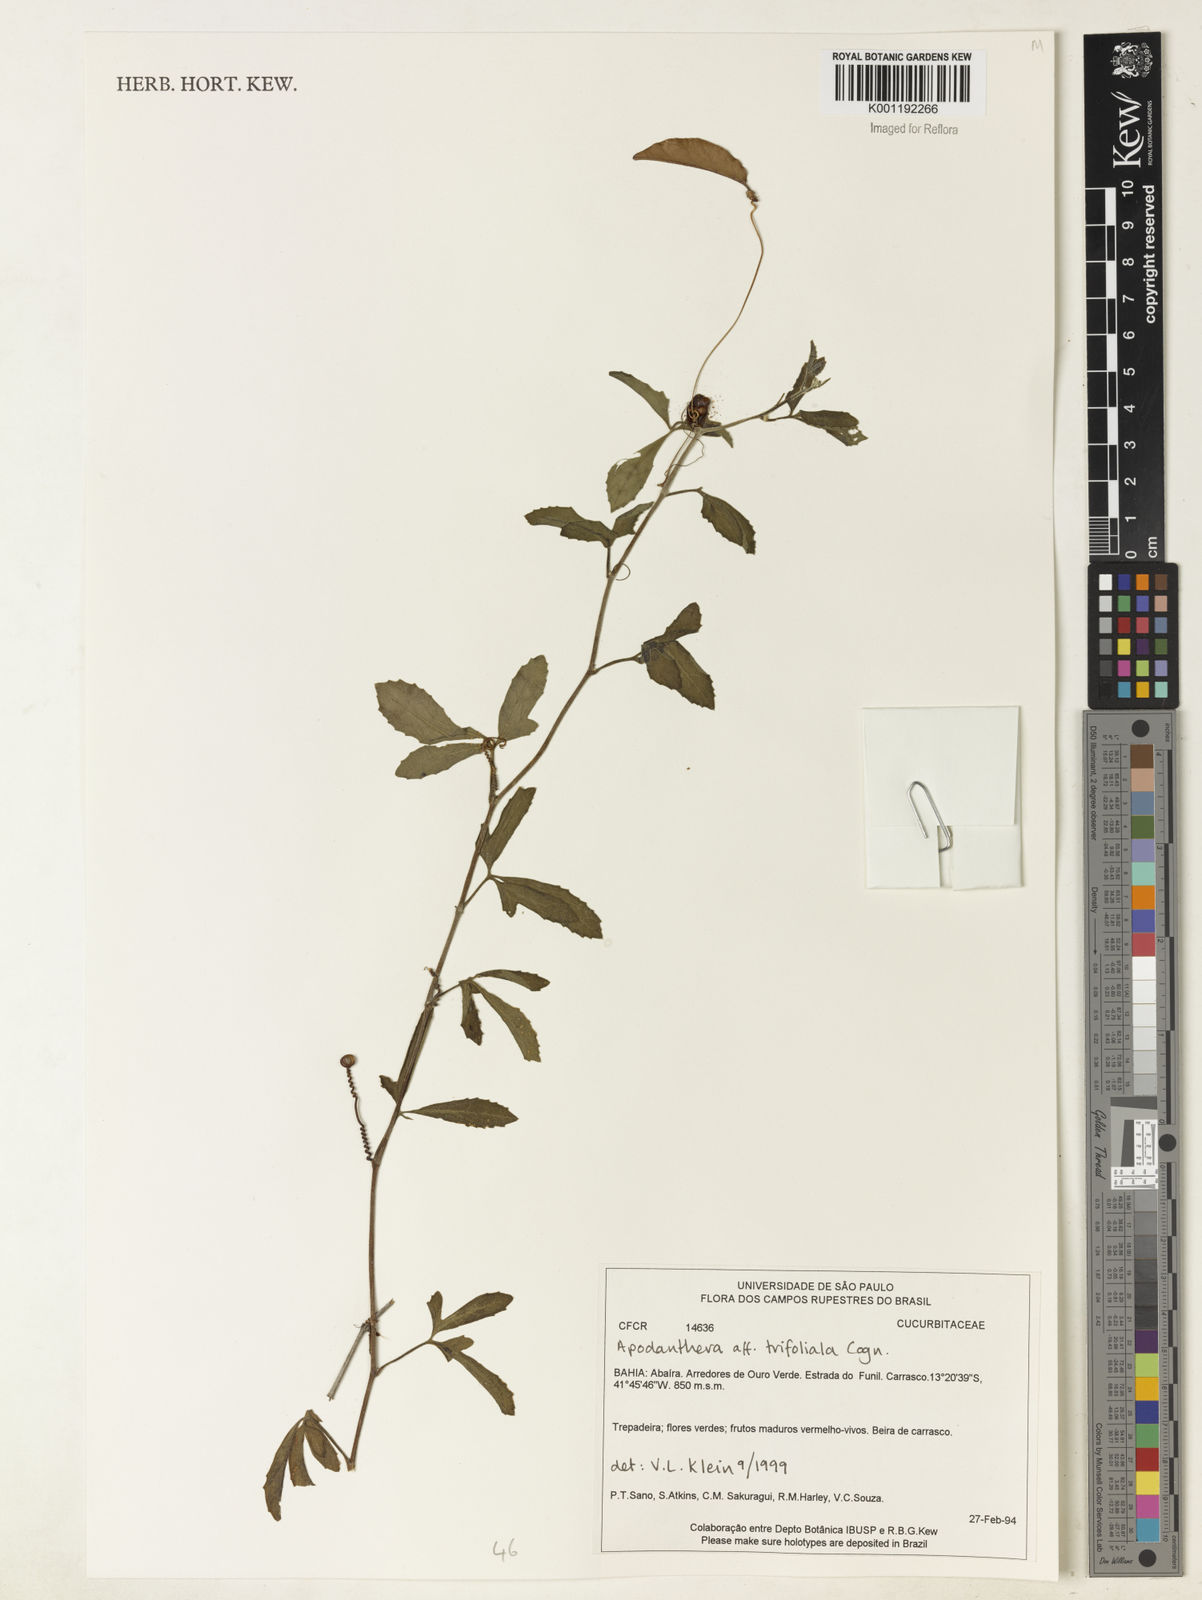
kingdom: Plantae
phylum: Tracheophyta
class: Magnoliopsida
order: Cucurbitales
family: Cucurbitaceae
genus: Apodanthera
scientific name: Apodanthera trifoliata
